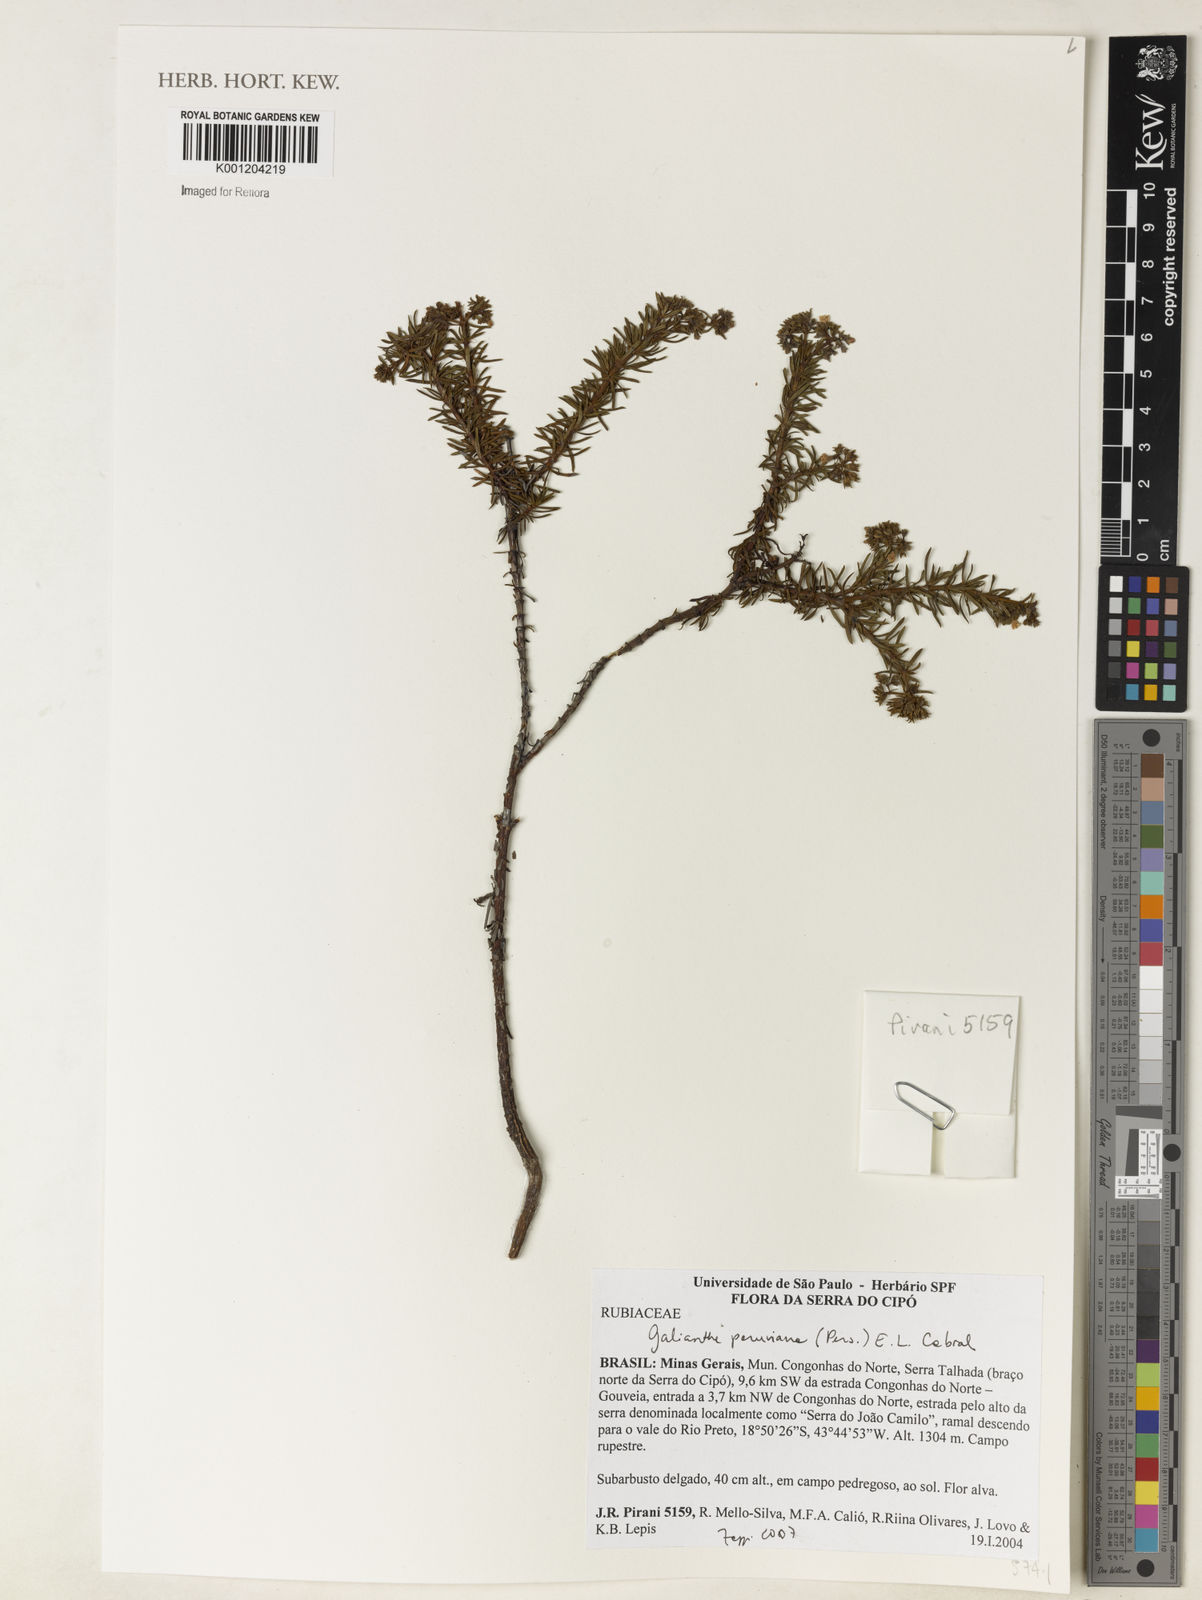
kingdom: Plantae
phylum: Tracheophyta
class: Magnoliopsida
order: Gentianales
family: Rubiaceae
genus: Galianthe
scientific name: Galianthe peruviana
